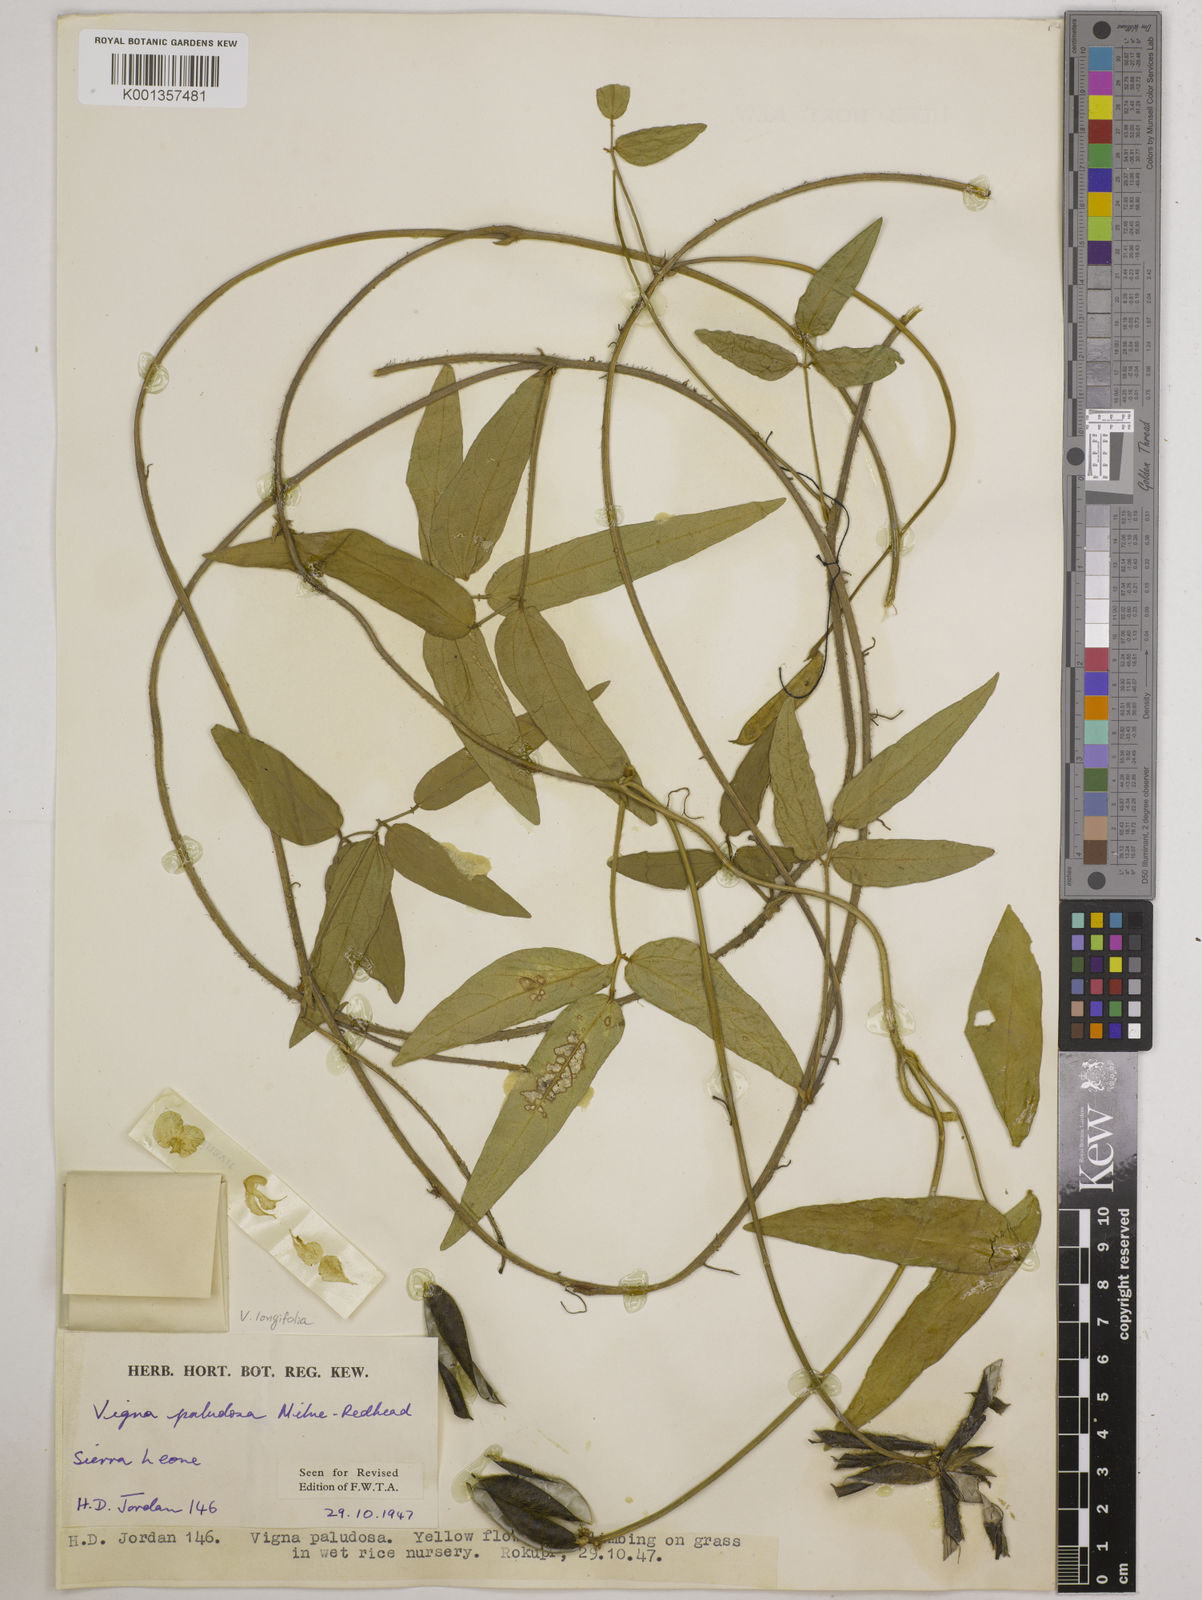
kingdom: Plantae
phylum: Tracheophyta
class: Magnoliopsida
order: Fabales
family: Fabaceae
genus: Vigna
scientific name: Vigna longifolia
